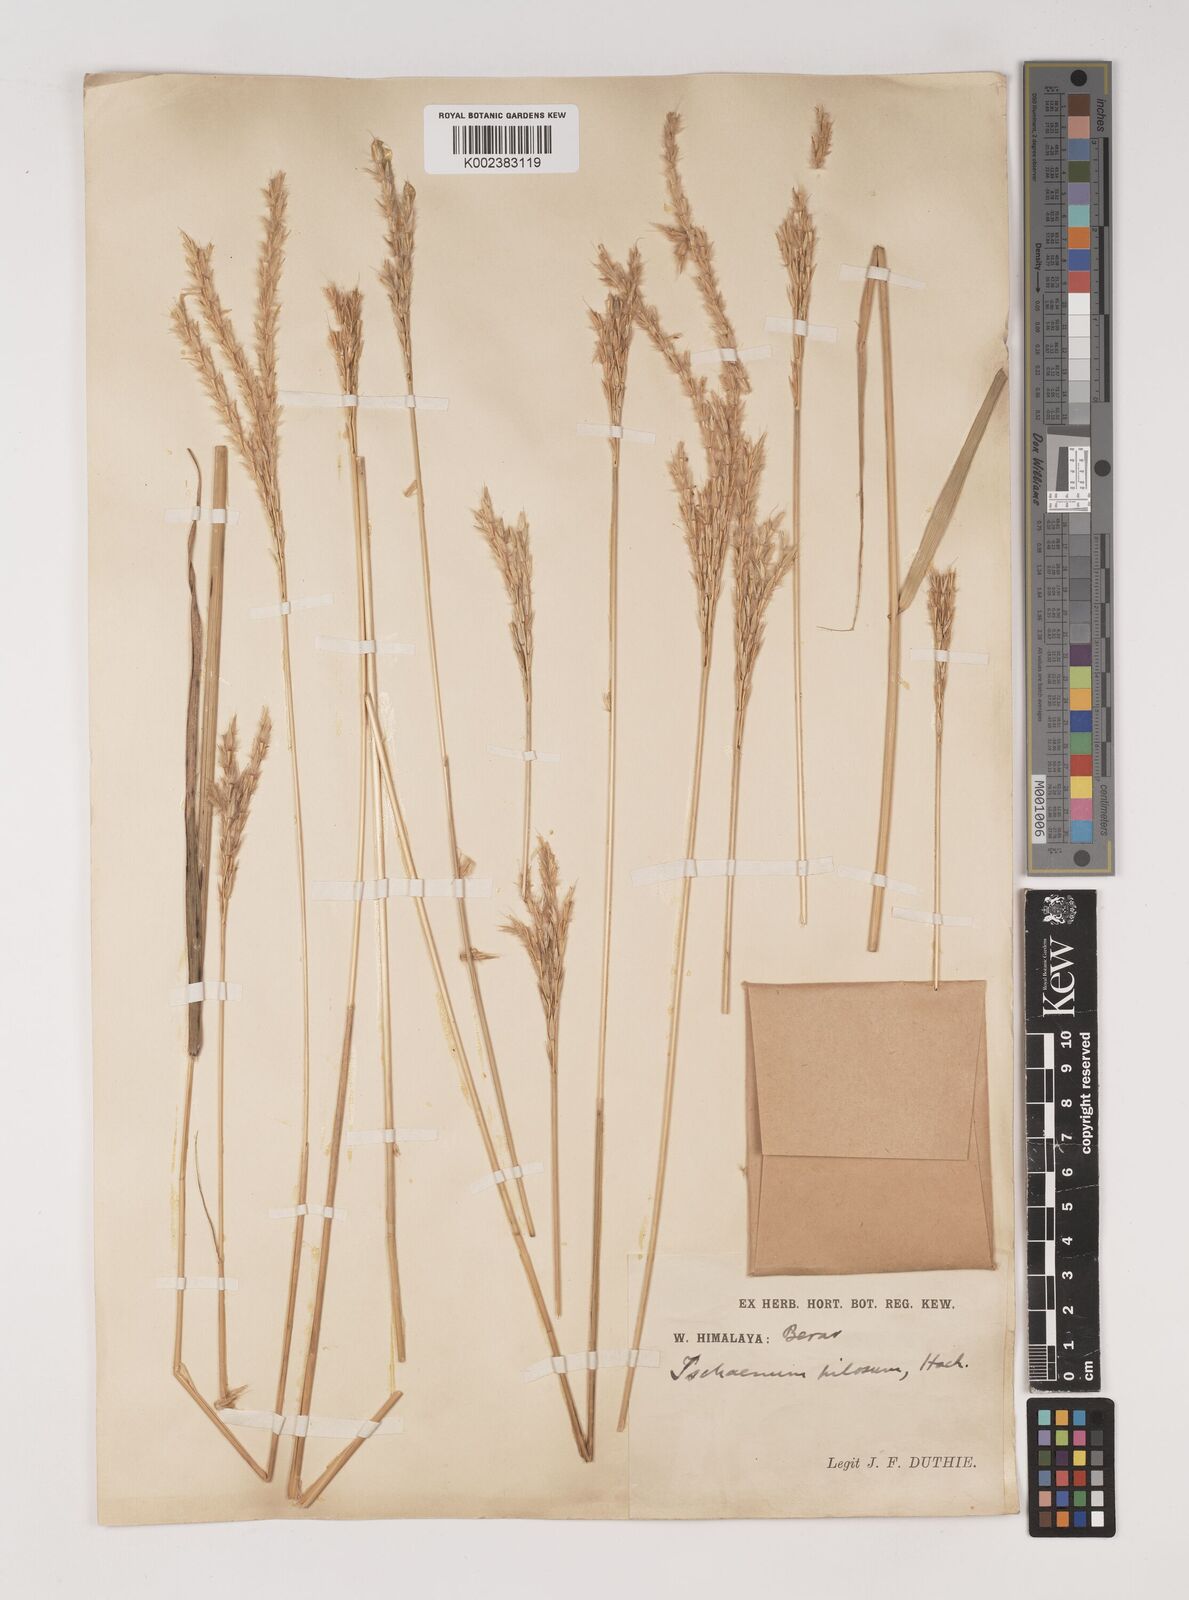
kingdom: Plantae
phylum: Tracheophyta
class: Liliopsida
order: Poales
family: Poaceae
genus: Ischaemum
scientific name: Ischaemum afrum
